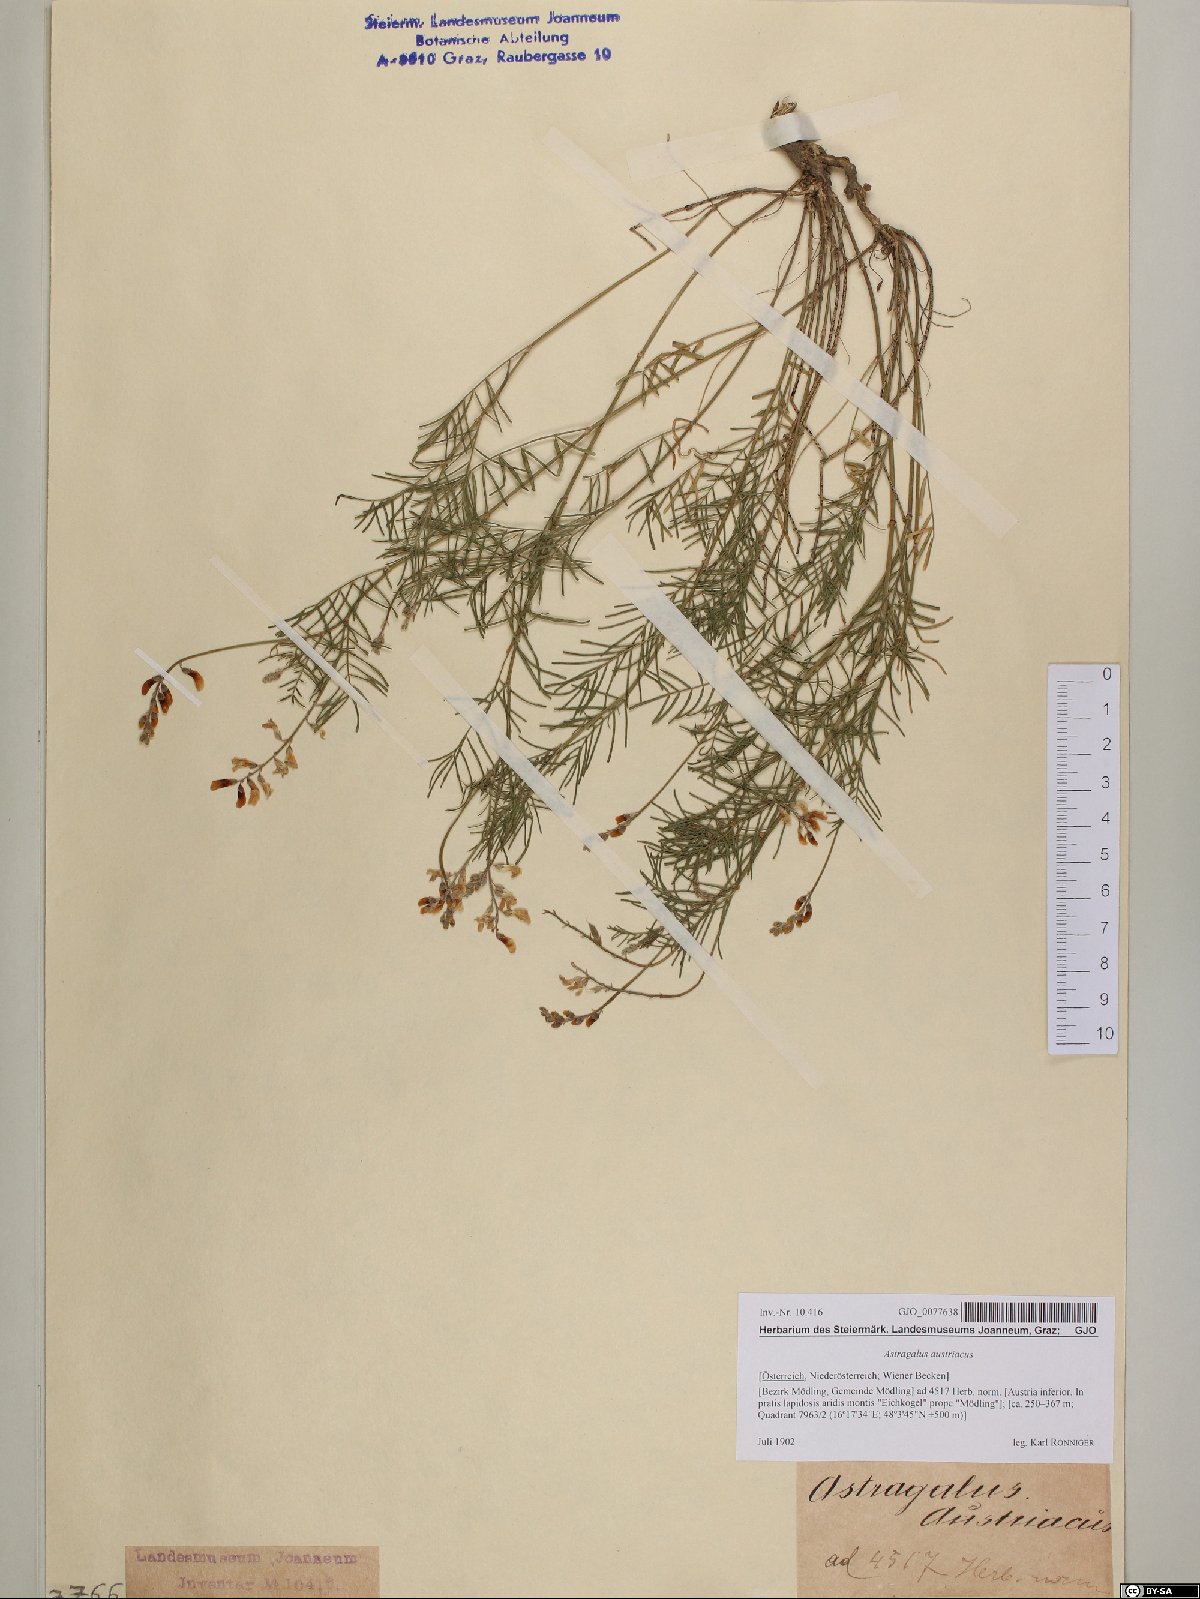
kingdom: Plantae
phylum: Tracheophyta
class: Magnoliopsida
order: Fabales
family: Fabaceae
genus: Astragalus
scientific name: Astragalus austriacus
